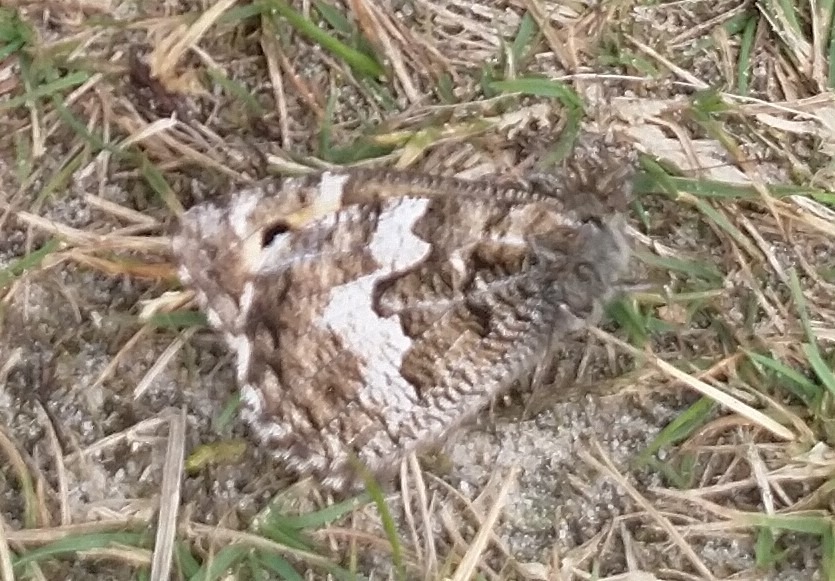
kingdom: Animalia
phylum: Arthropoda
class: Insecta
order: Lepidoptera
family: Nymphalidae
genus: Hipparchia
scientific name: Hipparchia semele
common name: Sandrandøje
